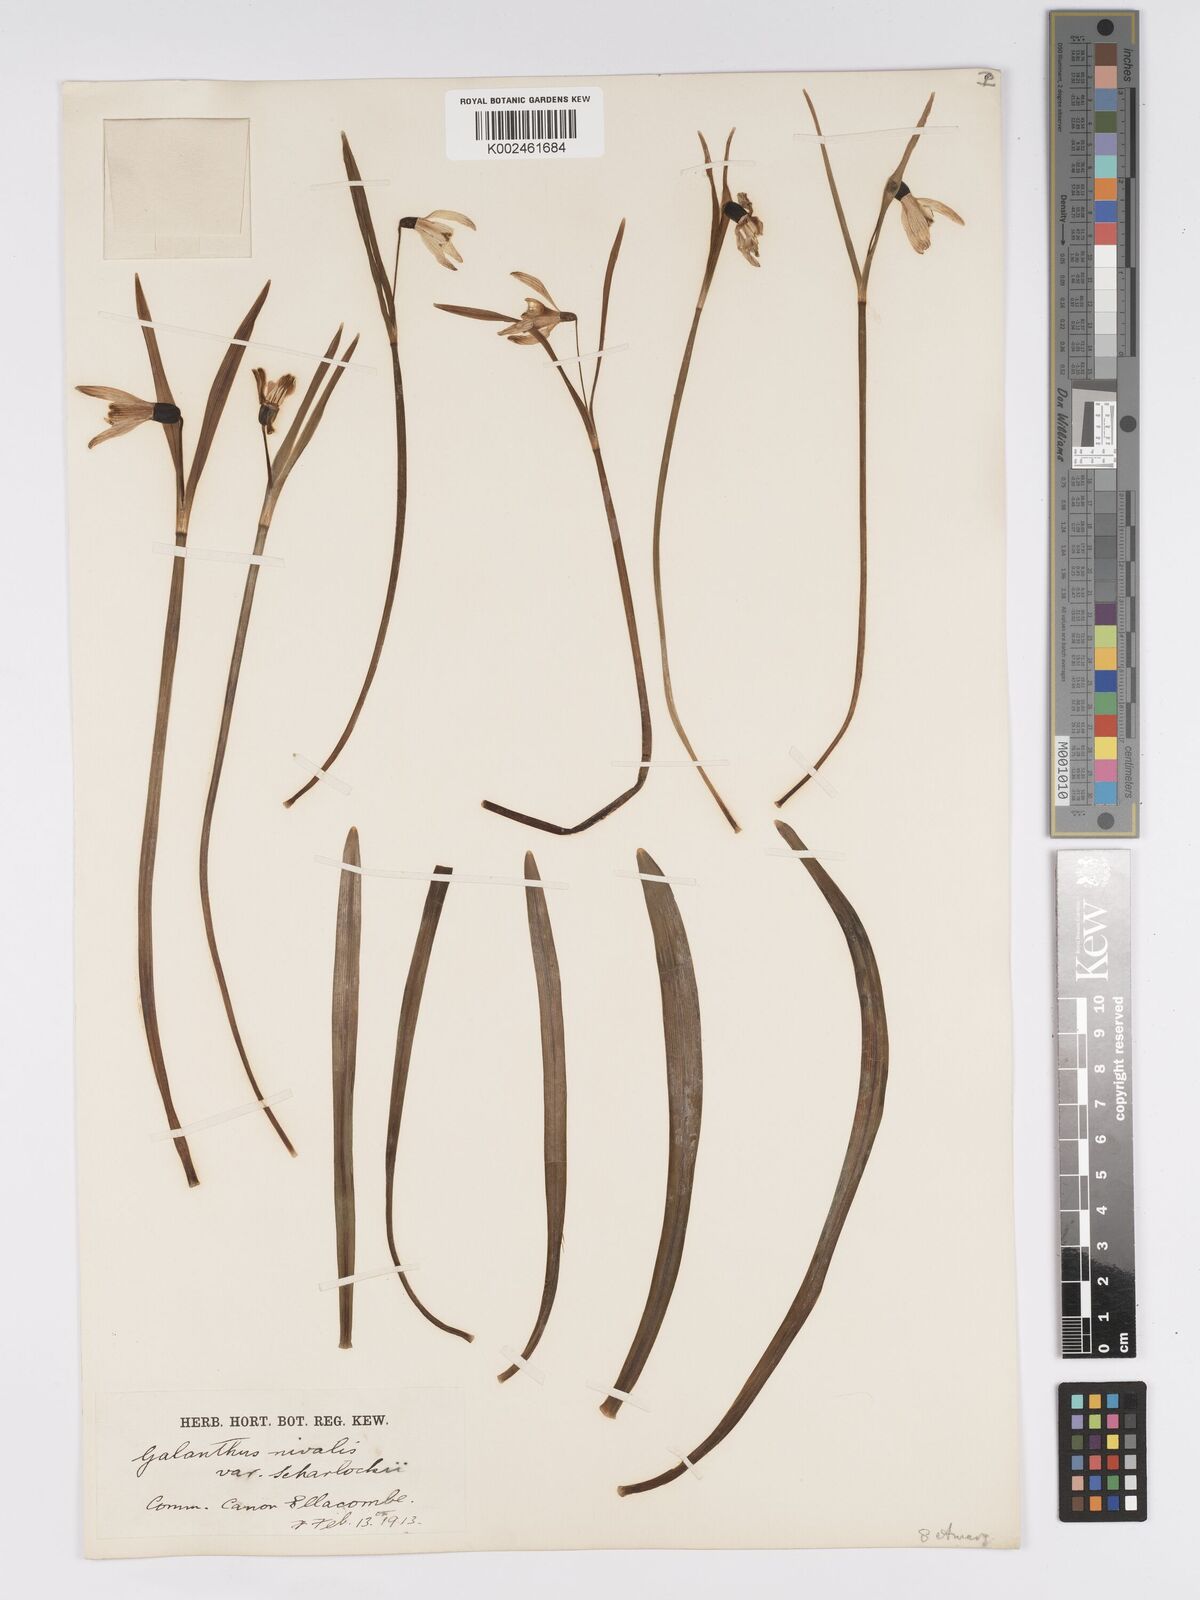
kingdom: Plantae
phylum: Tracheophyta
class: Liliopsida
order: Asparagales
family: Amaryllidaceae
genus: Galanthus
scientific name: Galanthus nivalis
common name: Snowdrop
